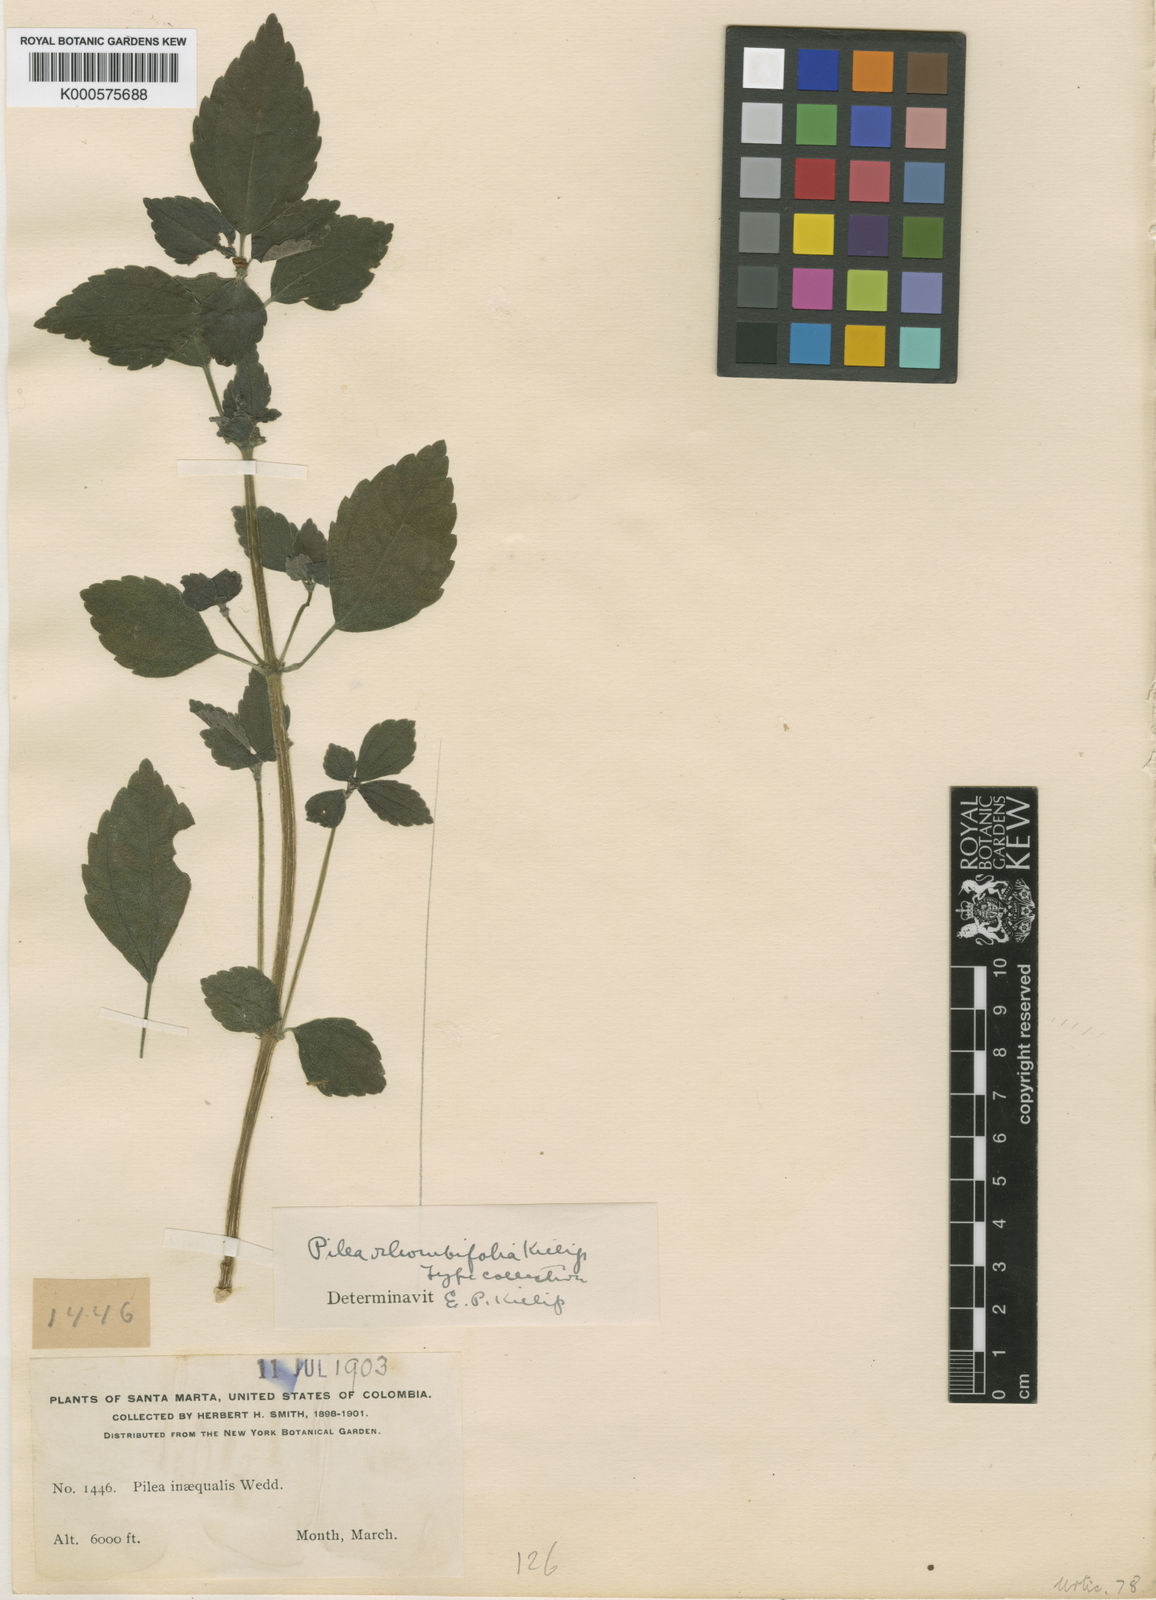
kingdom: Plantae
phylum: Tracheophyta
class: Magnoliopsida
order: Rosales
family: Urticaceae
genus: Pilea
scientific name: Pilea rhombifolia
